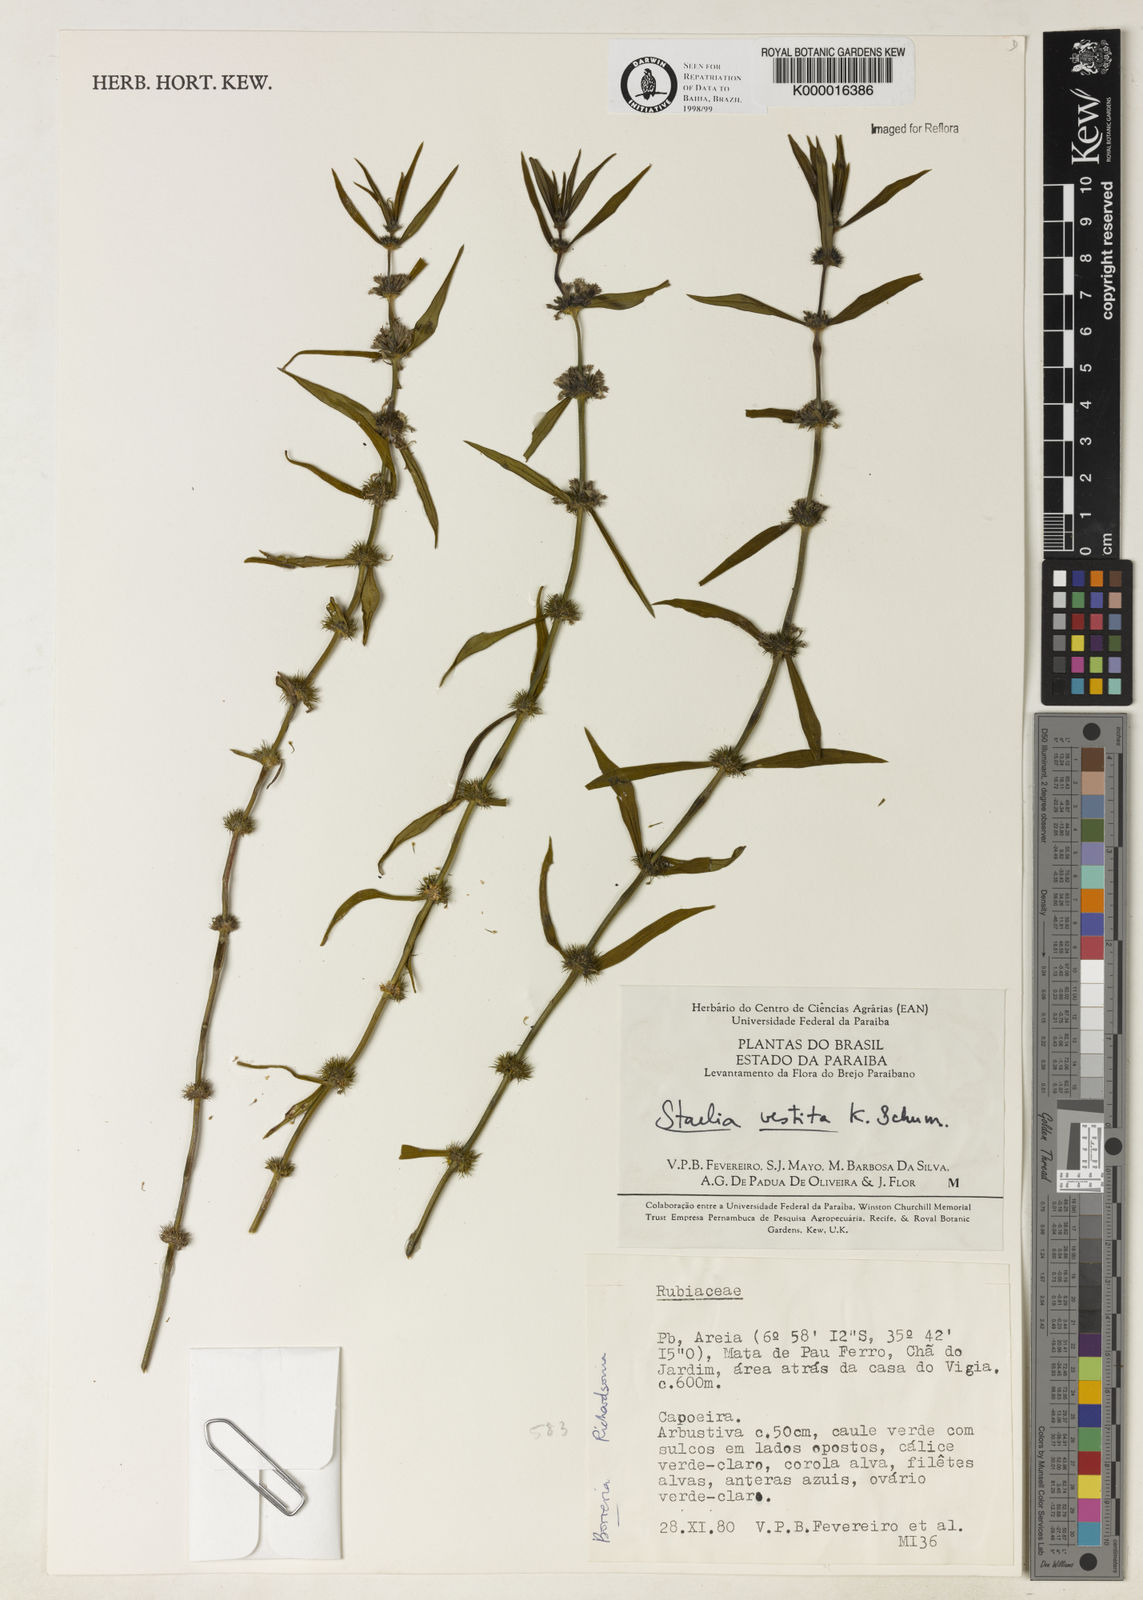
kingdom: Plantae
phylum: Tracheophyta
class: Magnoliopsida
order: Gentianales
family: Rubiaceae
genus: Staelia
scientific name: Staelia vestita
